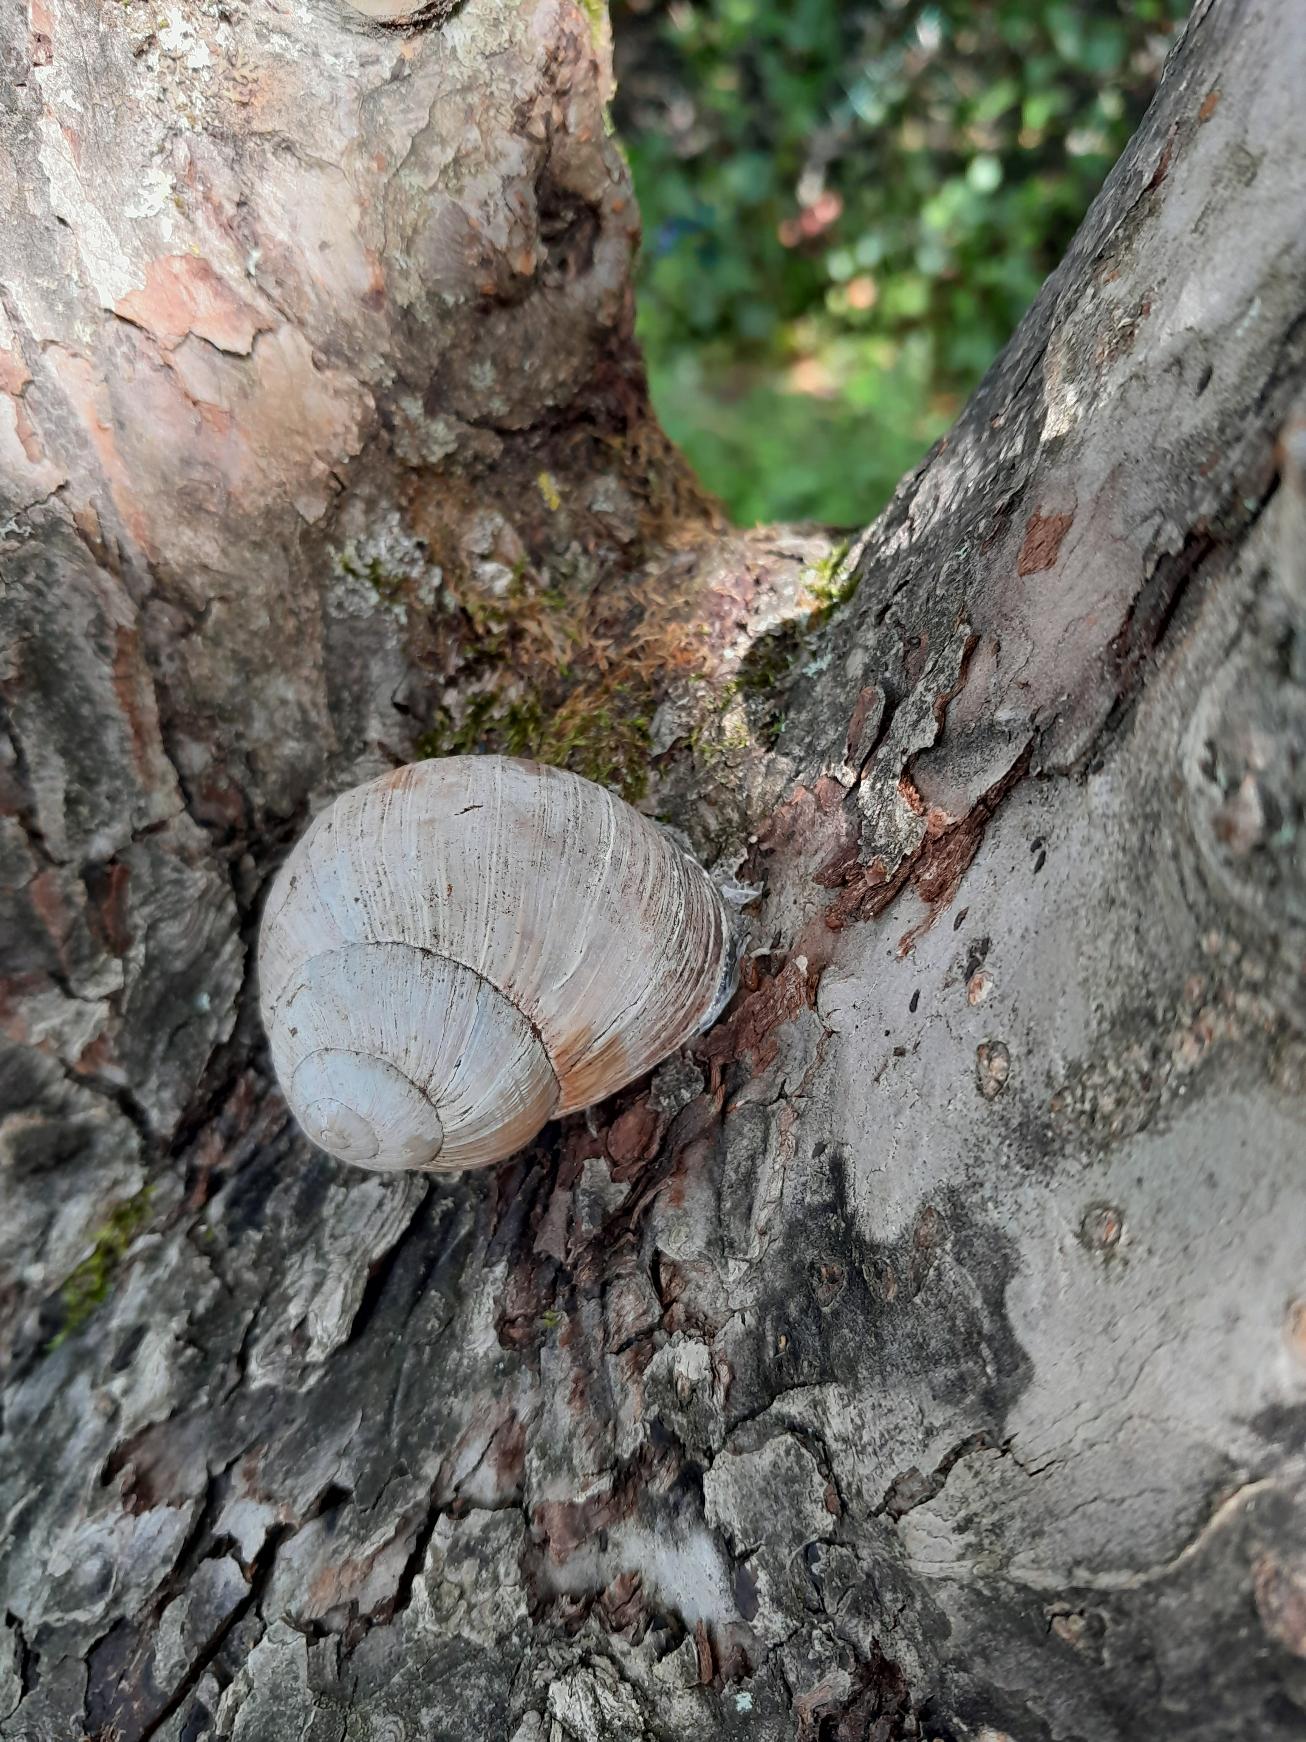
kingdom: Animalia
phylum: Mollusca
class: Gastropoda
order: Stylommatophora
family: Helicidae
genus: Helix
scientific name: Helix pomatia
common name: Vinbjergsnegl
